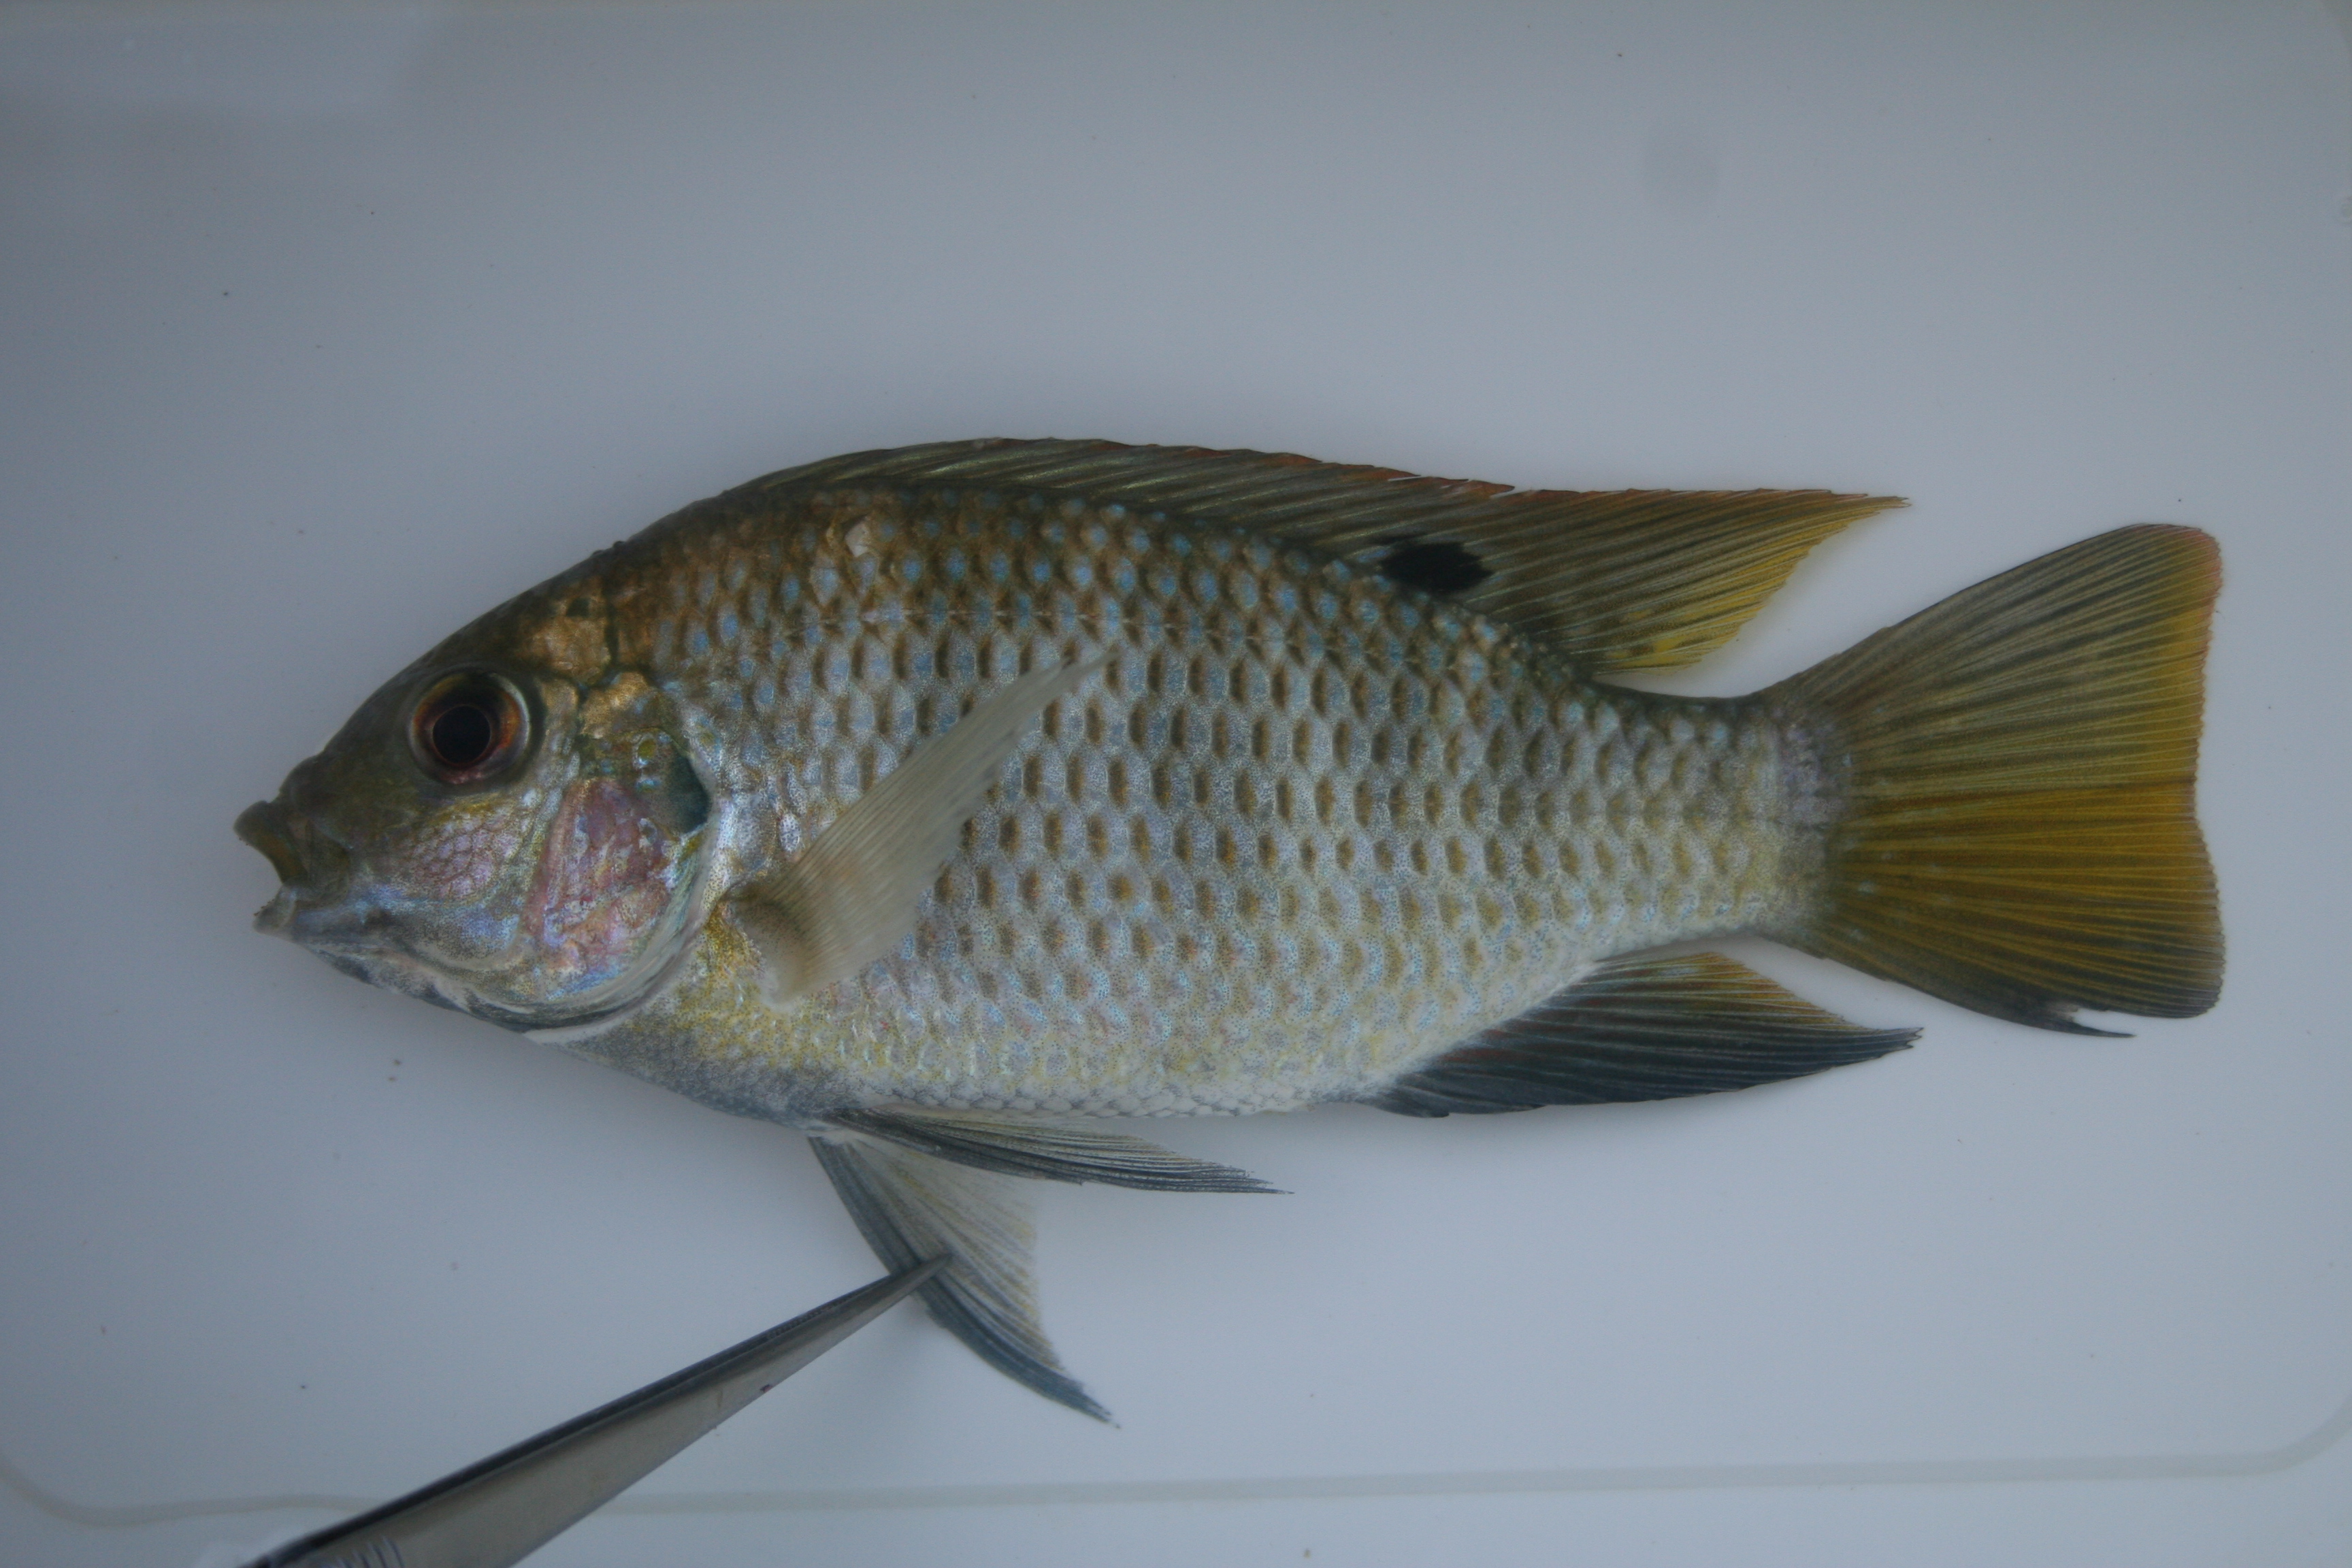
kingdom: Animalia
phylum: Chordata
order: Perciformes
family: Cichlidae
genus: Tilapia
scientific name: Tilapia
